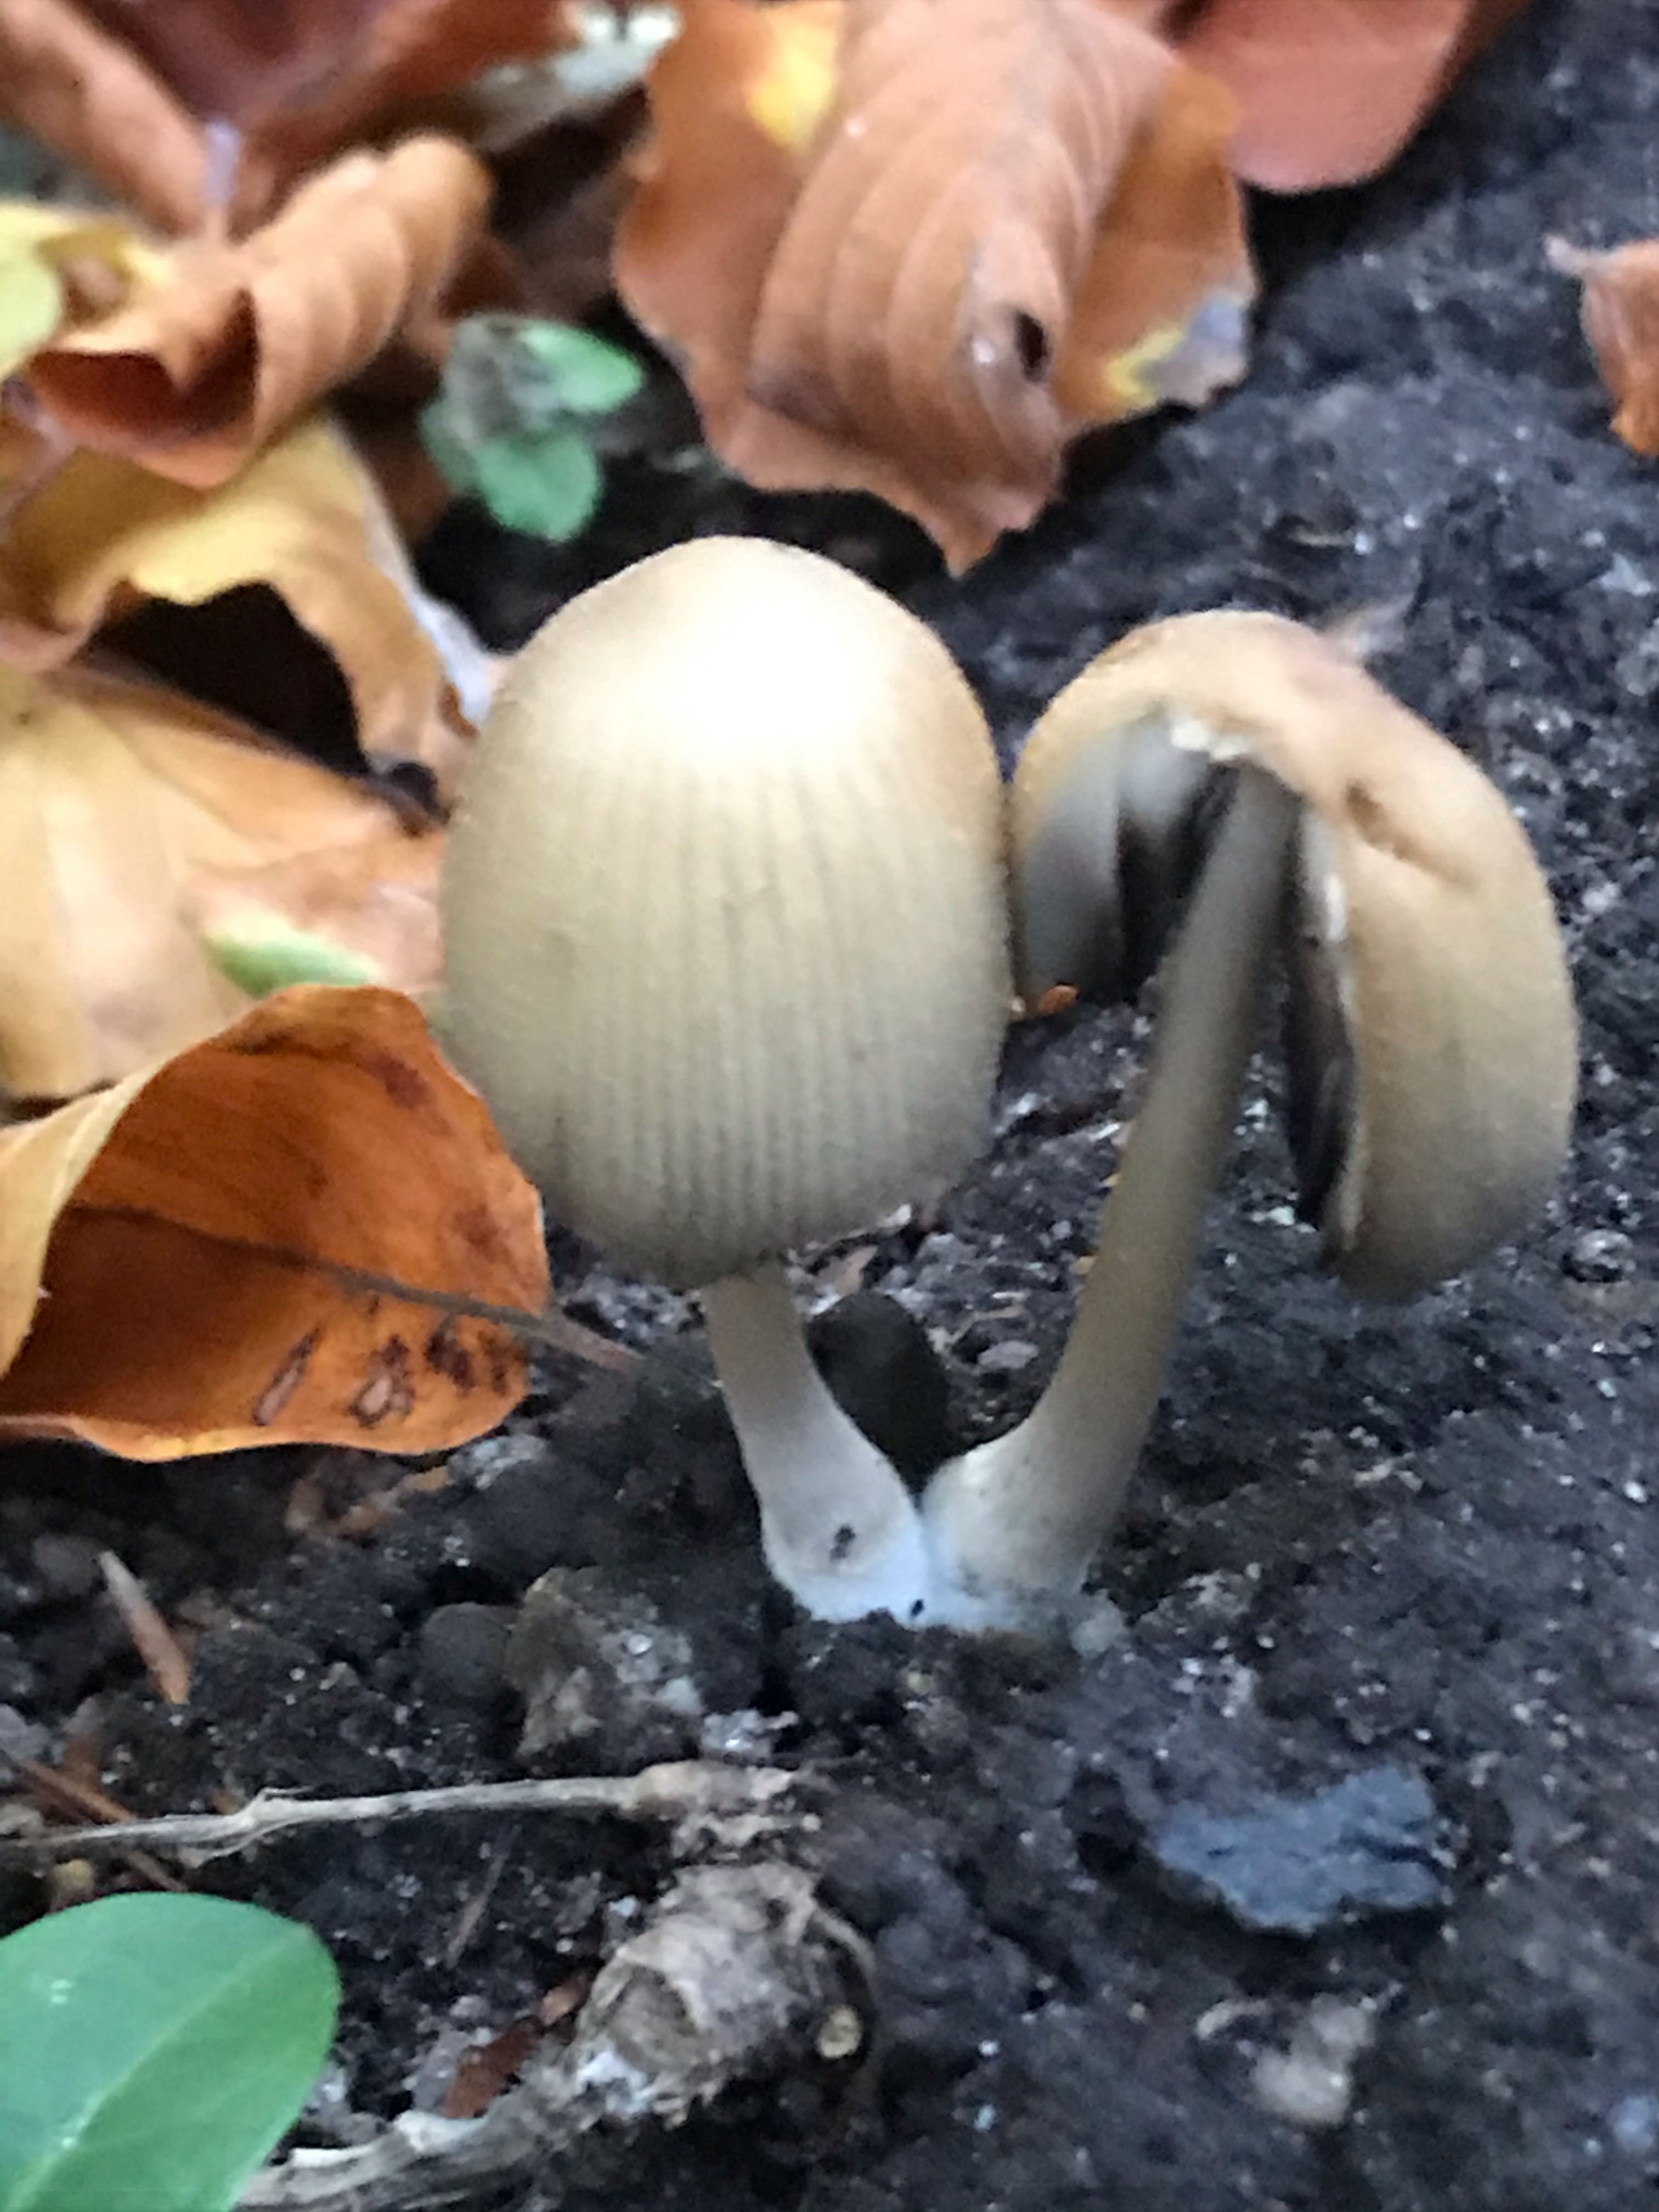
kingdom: Fungi
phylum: Basidiomycota
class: Agaricomycetes
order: Agaricales
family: Psathyrellaceae
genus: Coprinellus
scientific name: Coprinellus micaceus
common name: glimmer-blækhat
